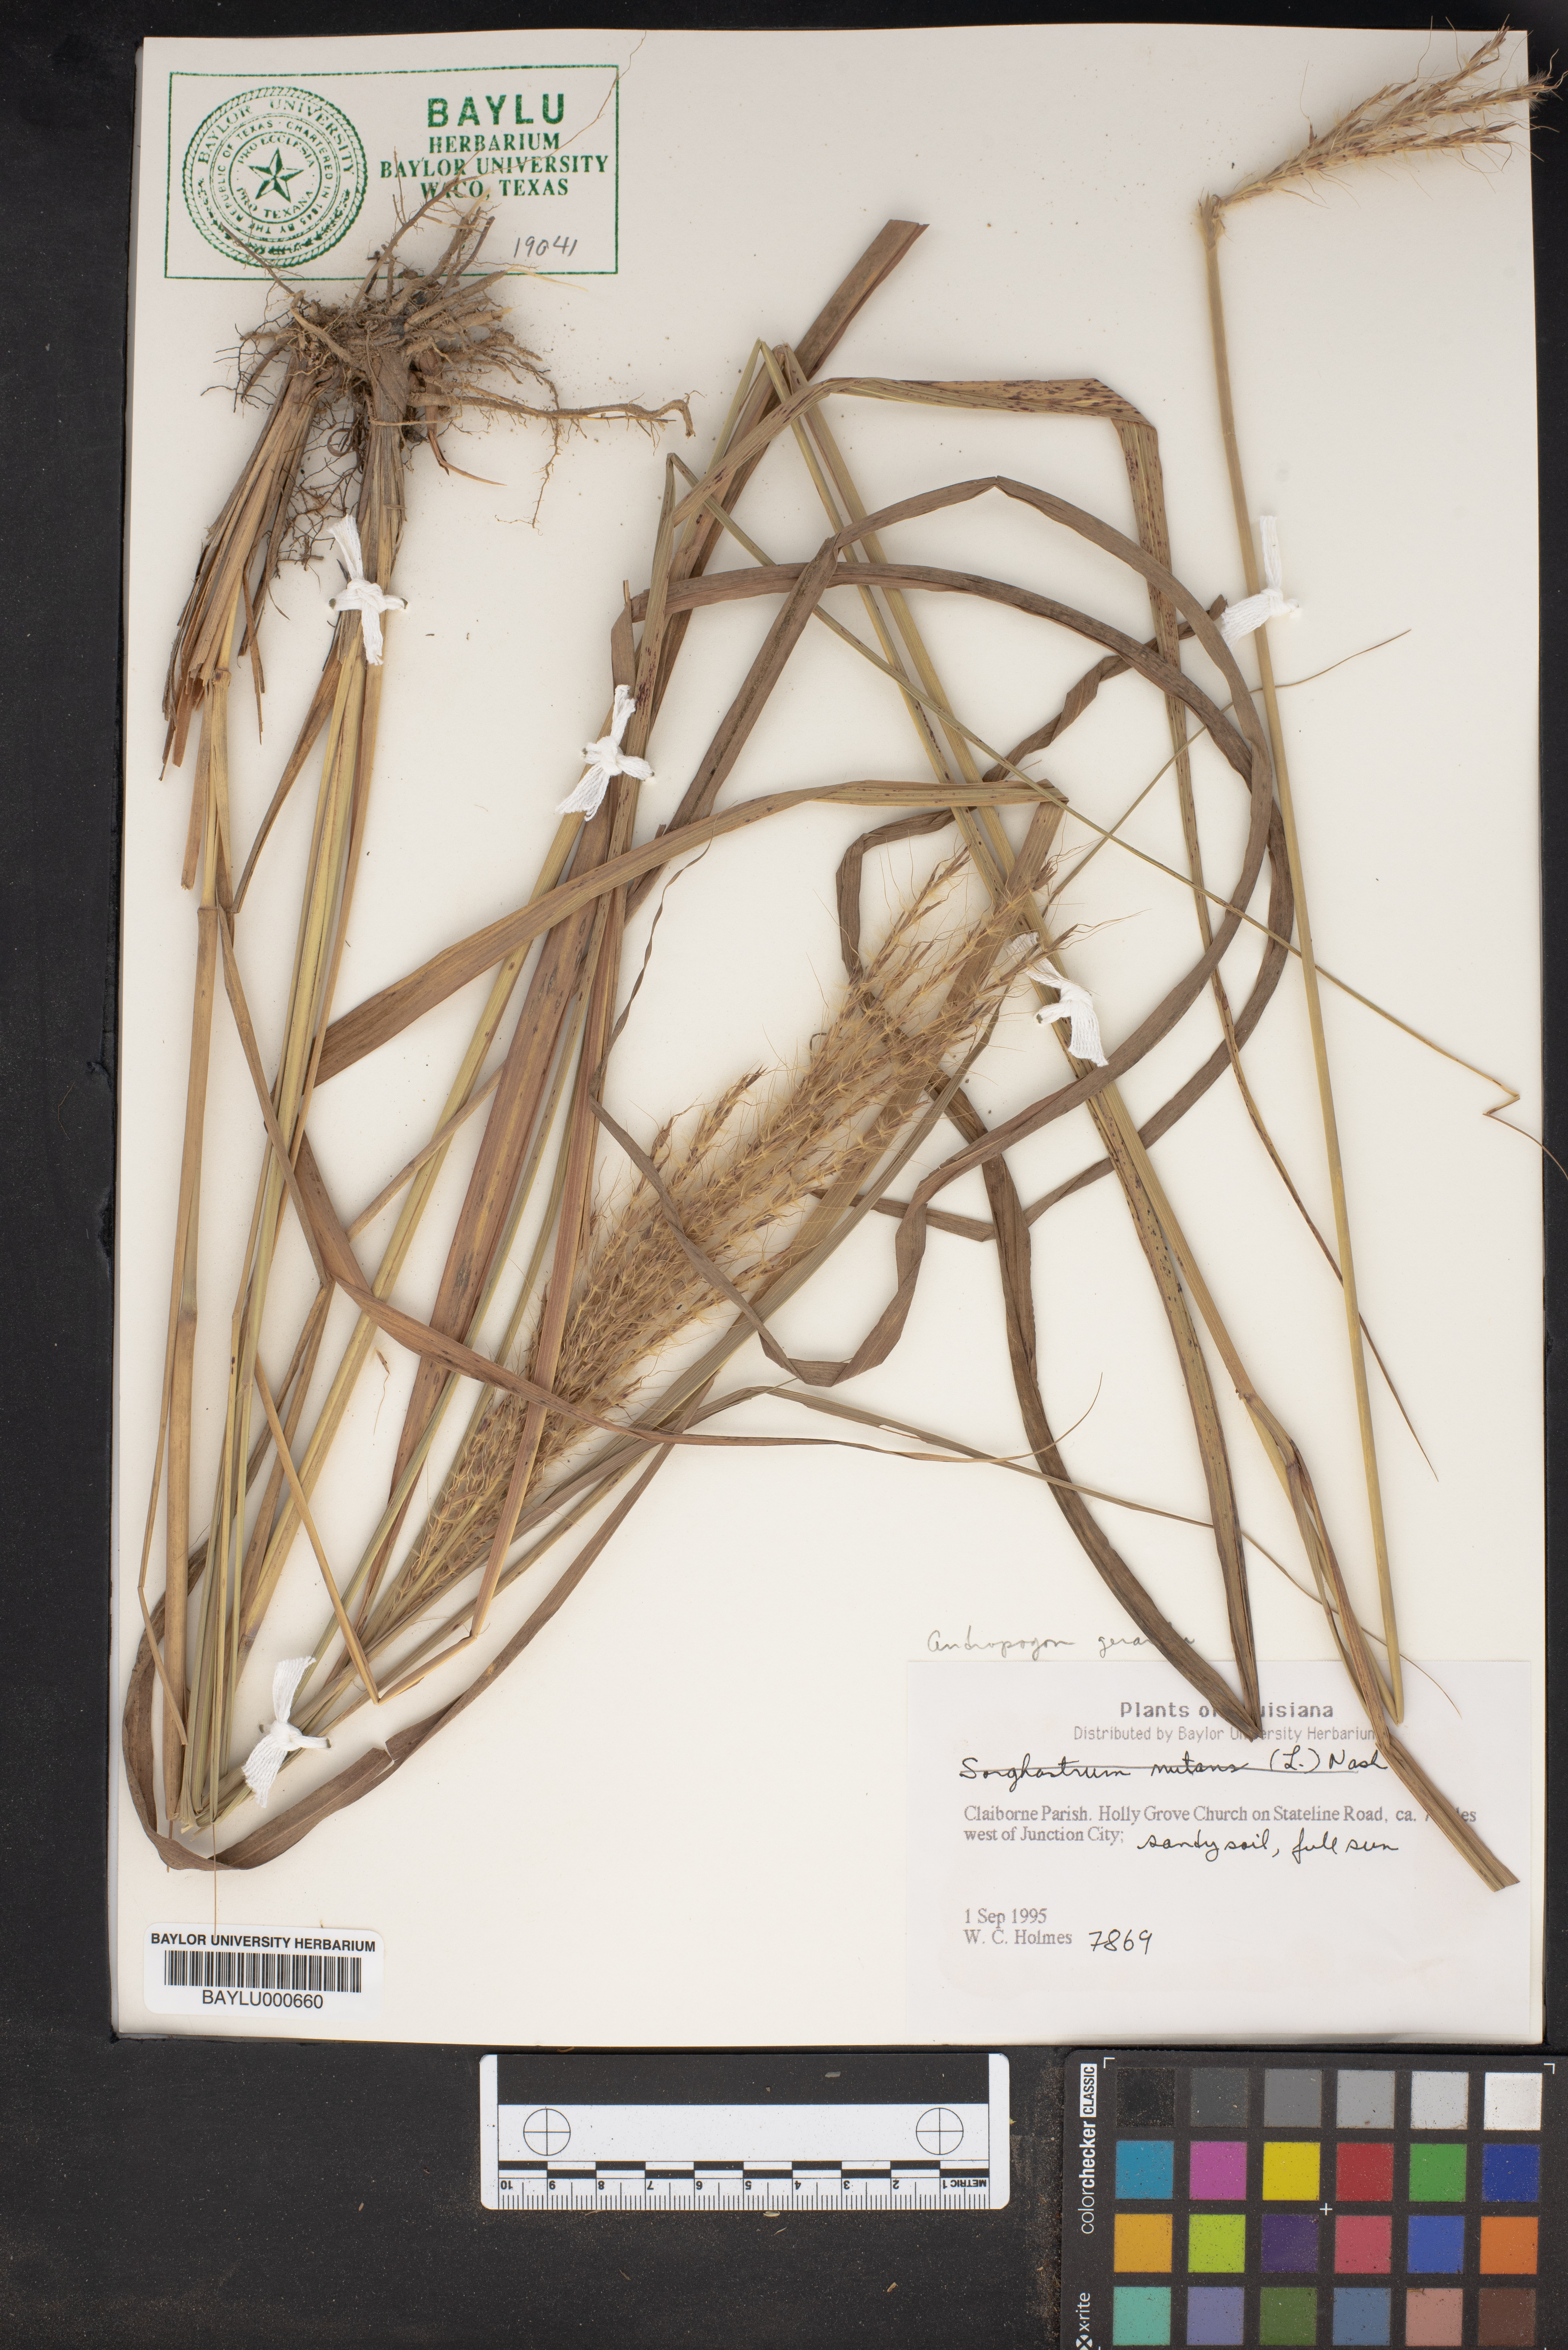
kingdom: Plantae
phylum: Tracheophyta
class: Liliopsida
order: Poales
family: Poaceae
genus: Andropogon
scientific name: Andropogon gerardi
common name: Big bluestem
